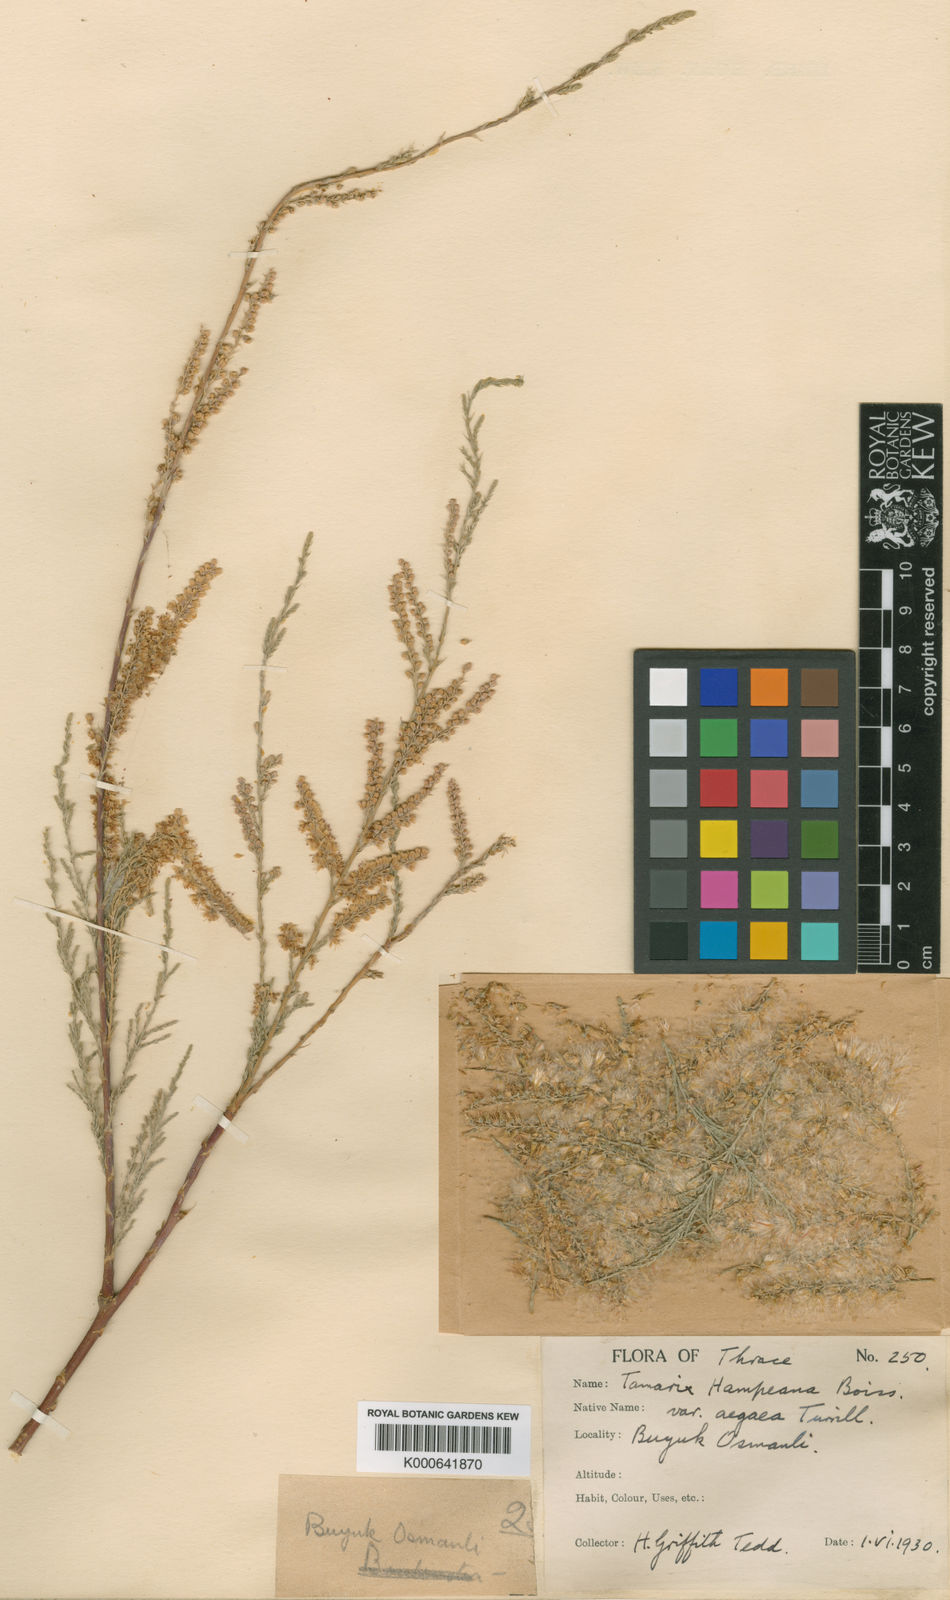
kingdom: Plantae
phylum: Tracheophyta
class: Magnoliopsida
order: Caryophyllales
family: Tamaricaceae
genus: Tamarix
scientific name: Tamarix hampeana
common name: Hampe’s tamarisk
